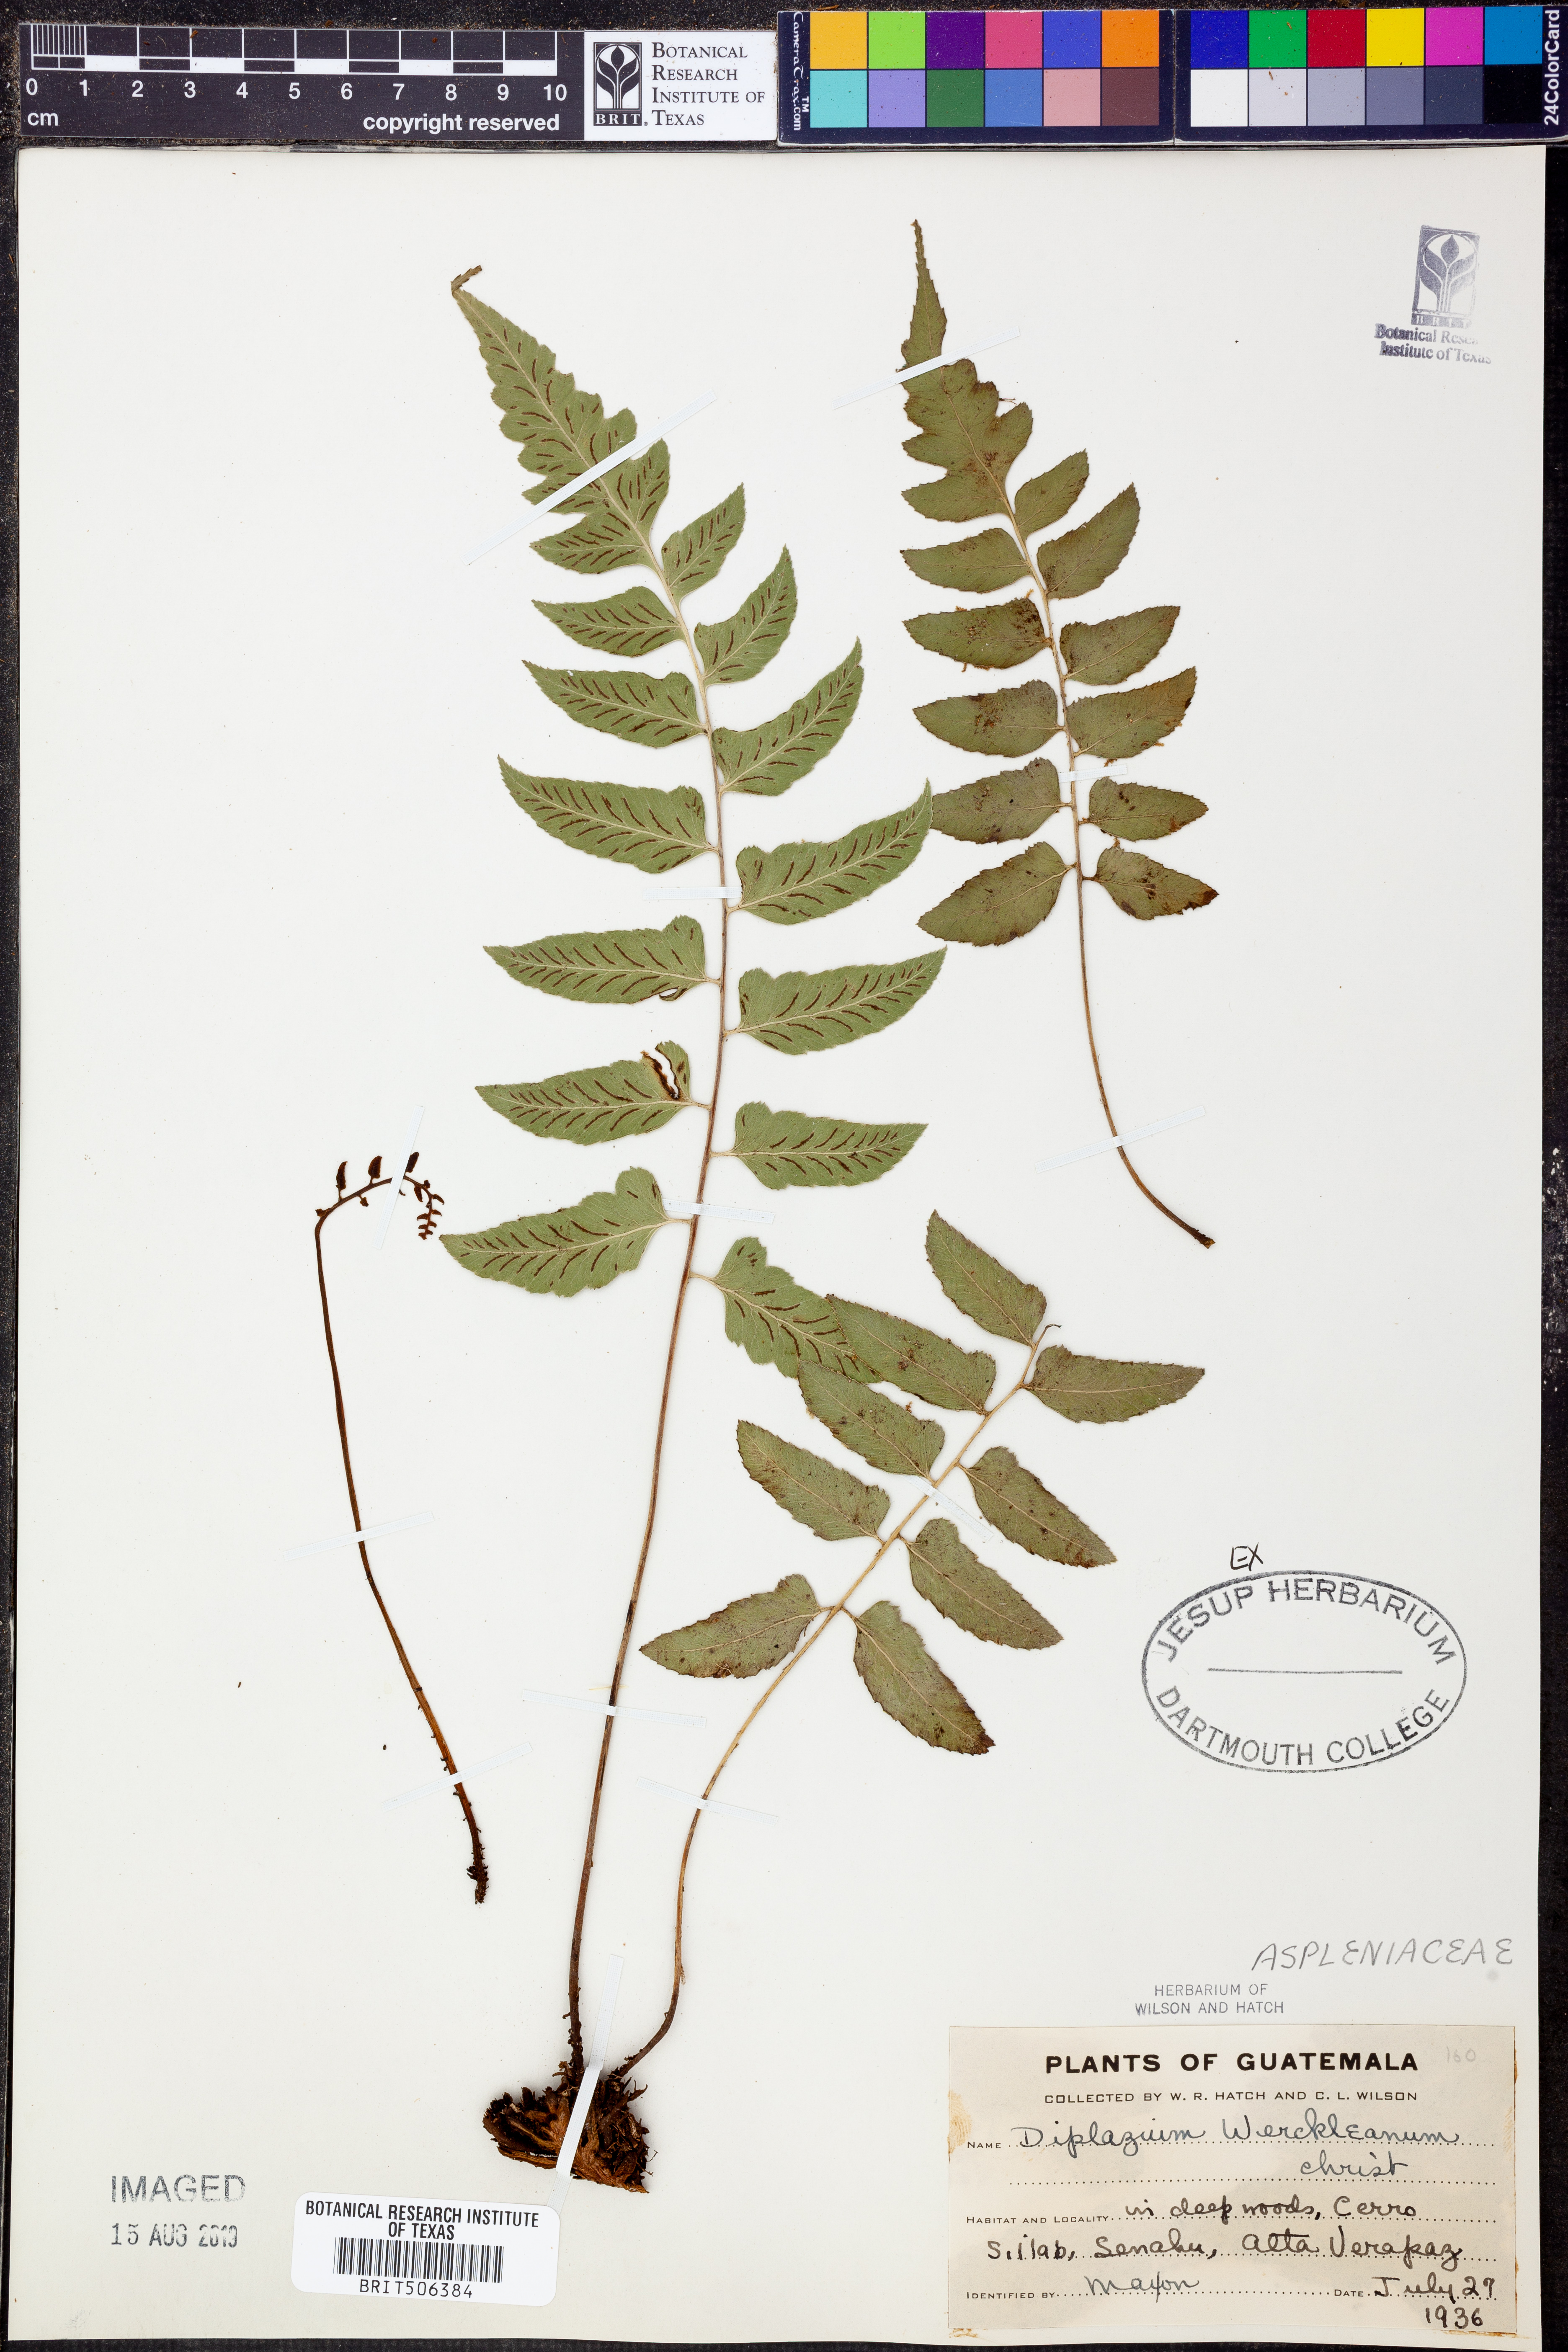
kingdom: Plantae
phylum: Tracheophyta
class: Polypodiopsida
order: Polypodiales
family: Athyriaceae
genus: Diplazium
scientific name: Diplazium werckleanum
